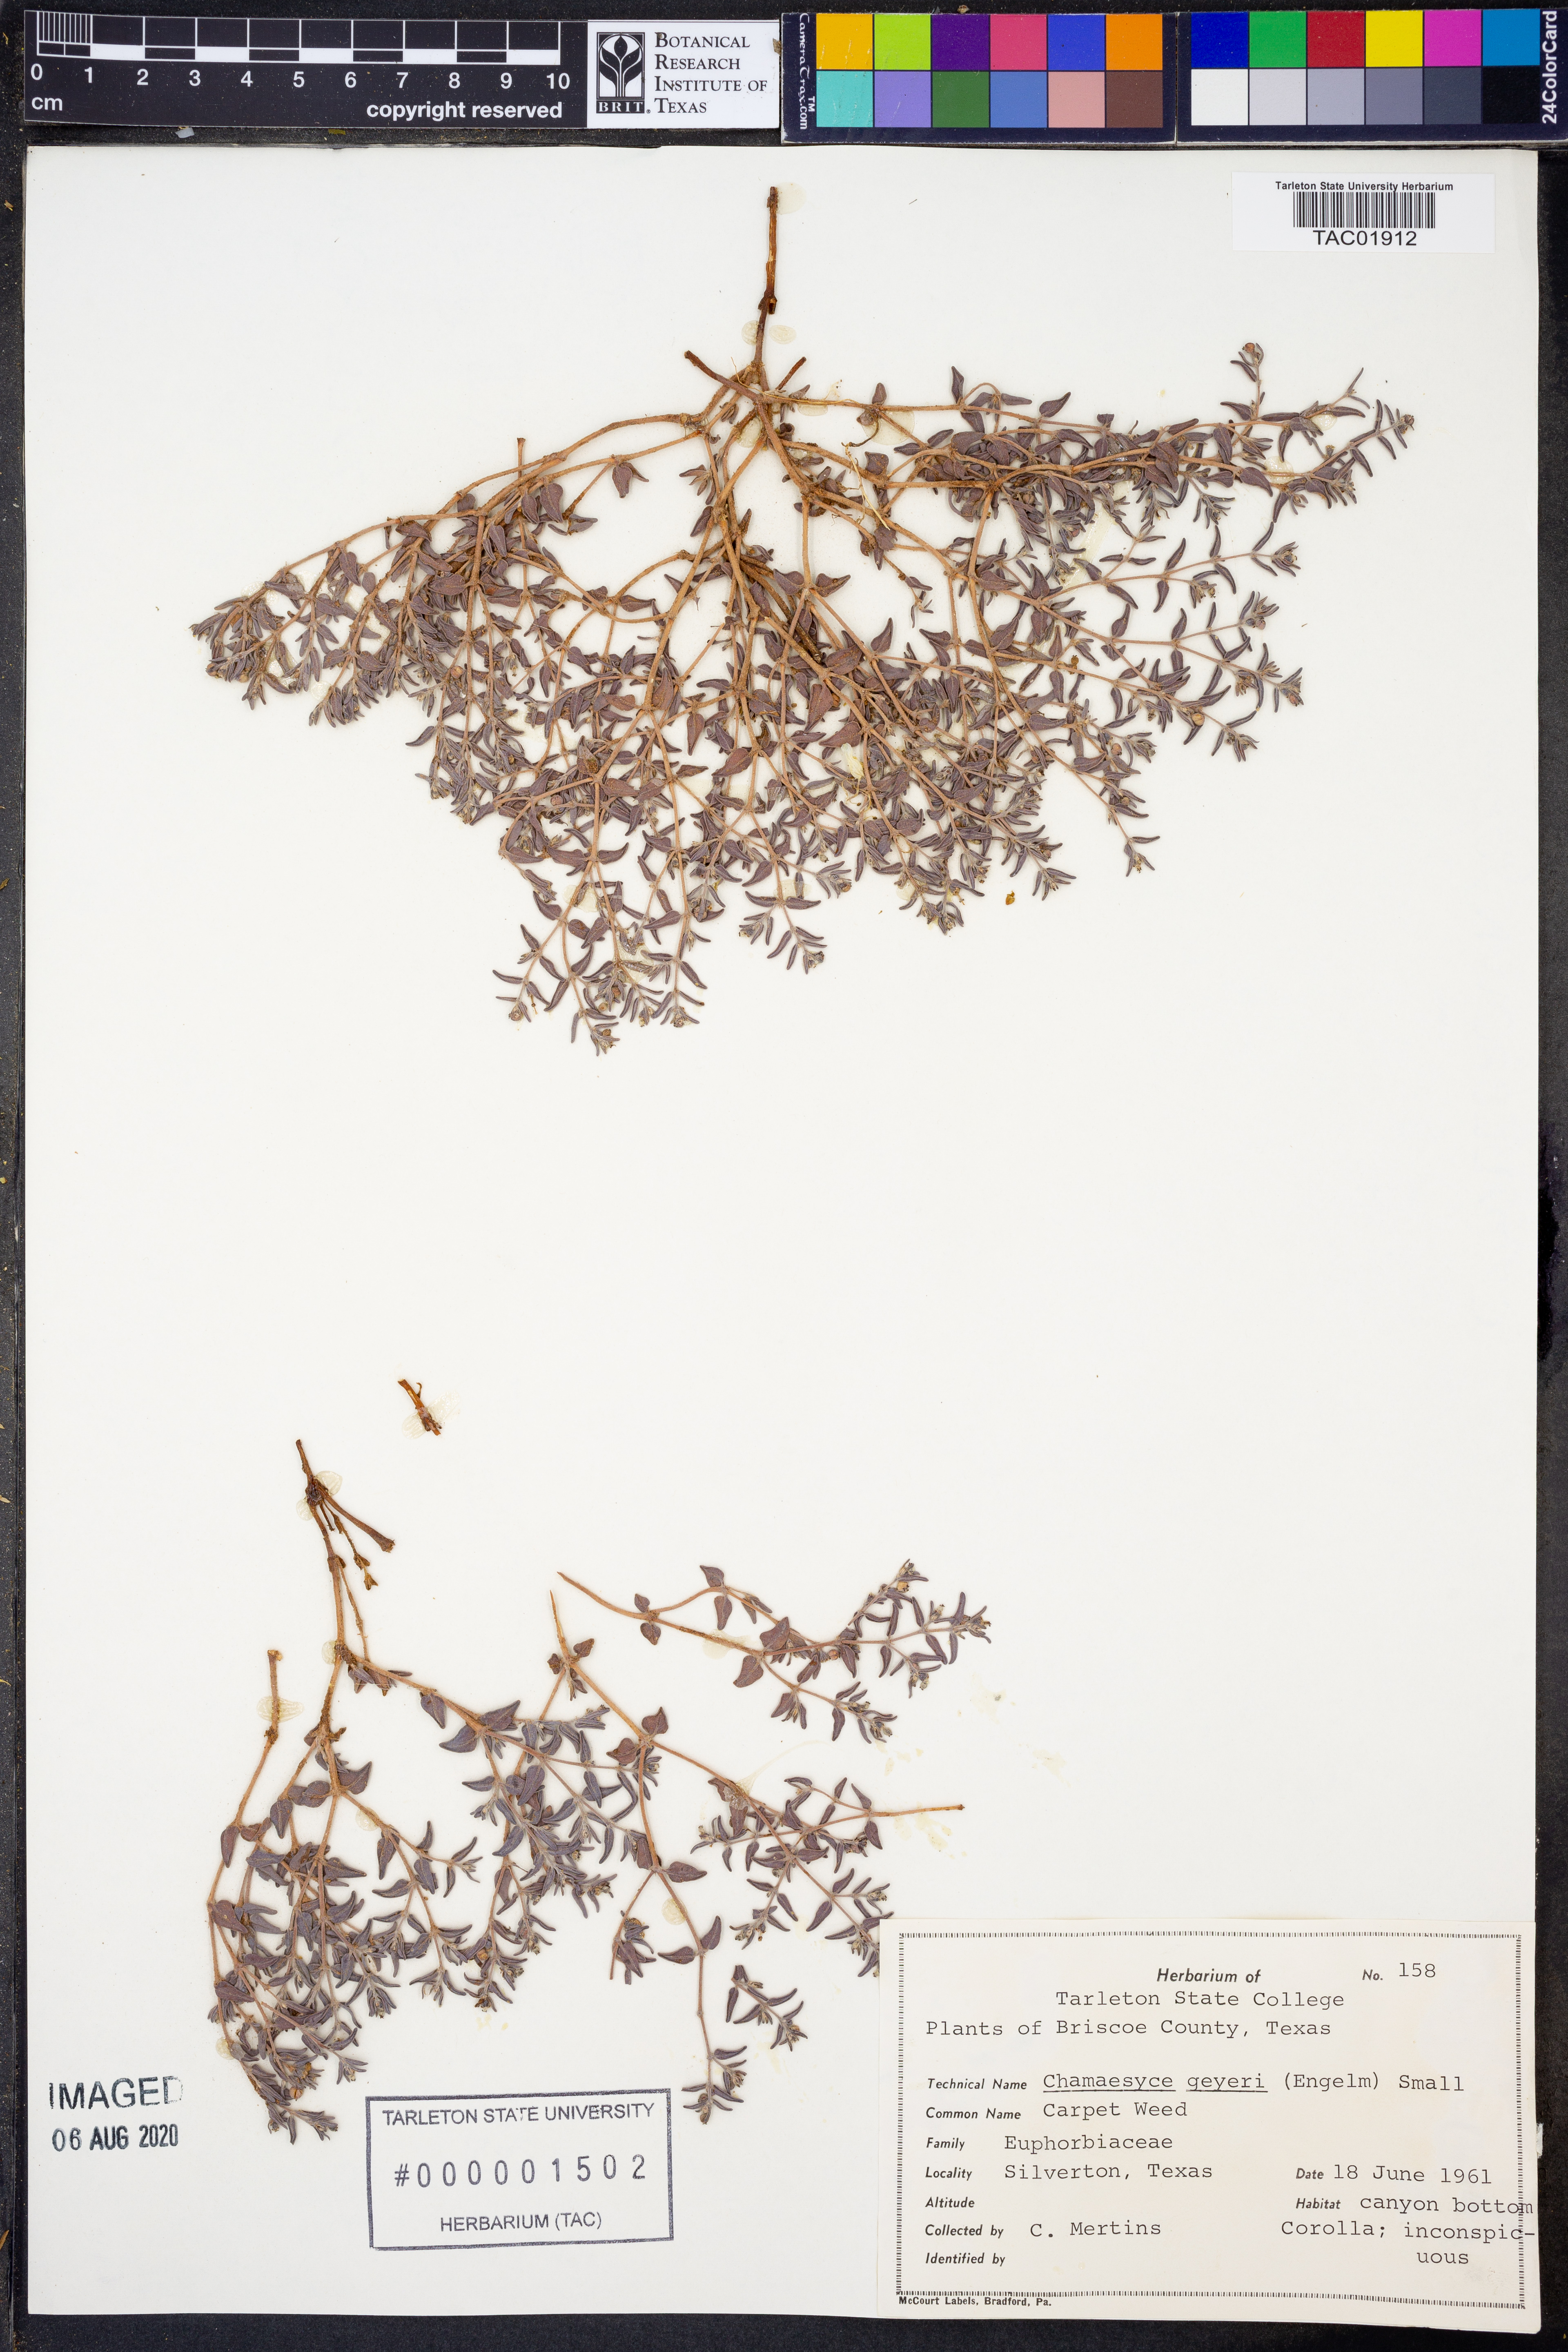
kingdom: Plantae
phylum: Tracheophyta
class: Magnoliopsida
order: Malpighiales
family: Euphorbiaceae
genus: Euphorbia
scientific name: Euphorbia geyeri
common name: Geyer's spurge
